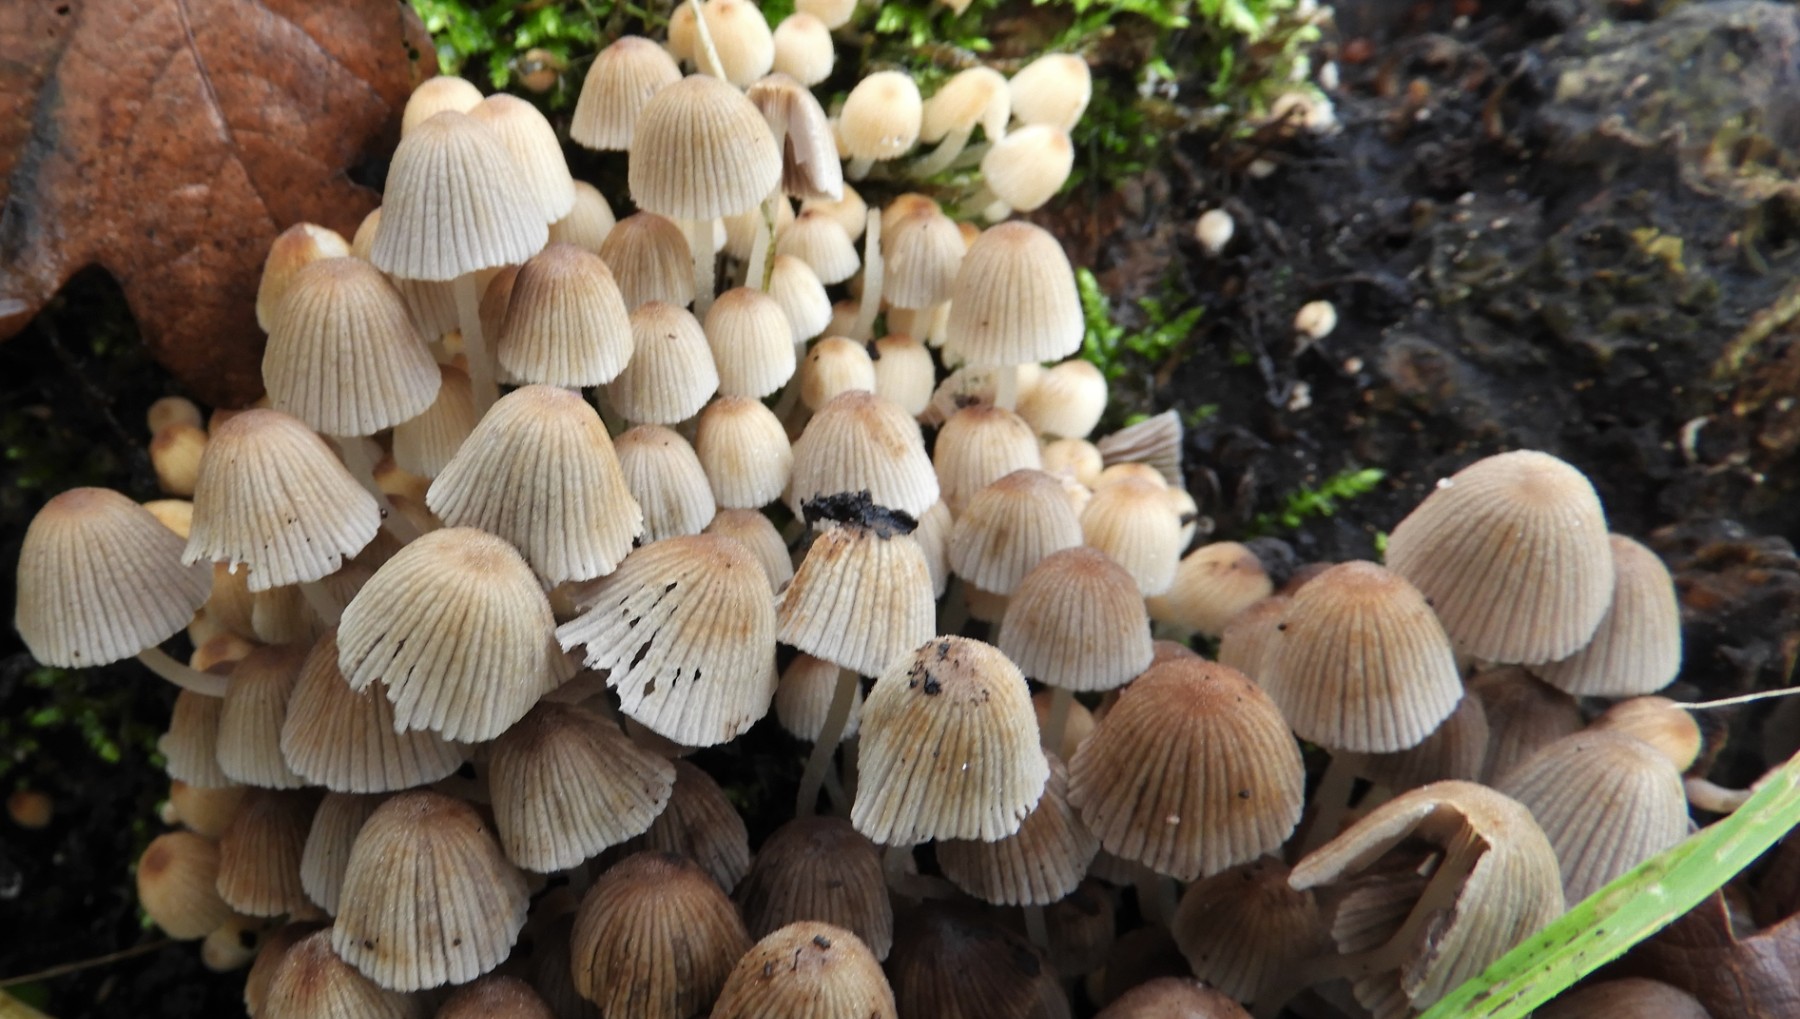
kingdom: Fungi
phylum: Basidiomycota
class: Agaricomycetes
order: Agaricales
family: Psathyrellaceae
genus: Coprinellus
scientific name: Coprinellus disseminatus
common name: bredsået blækhat
